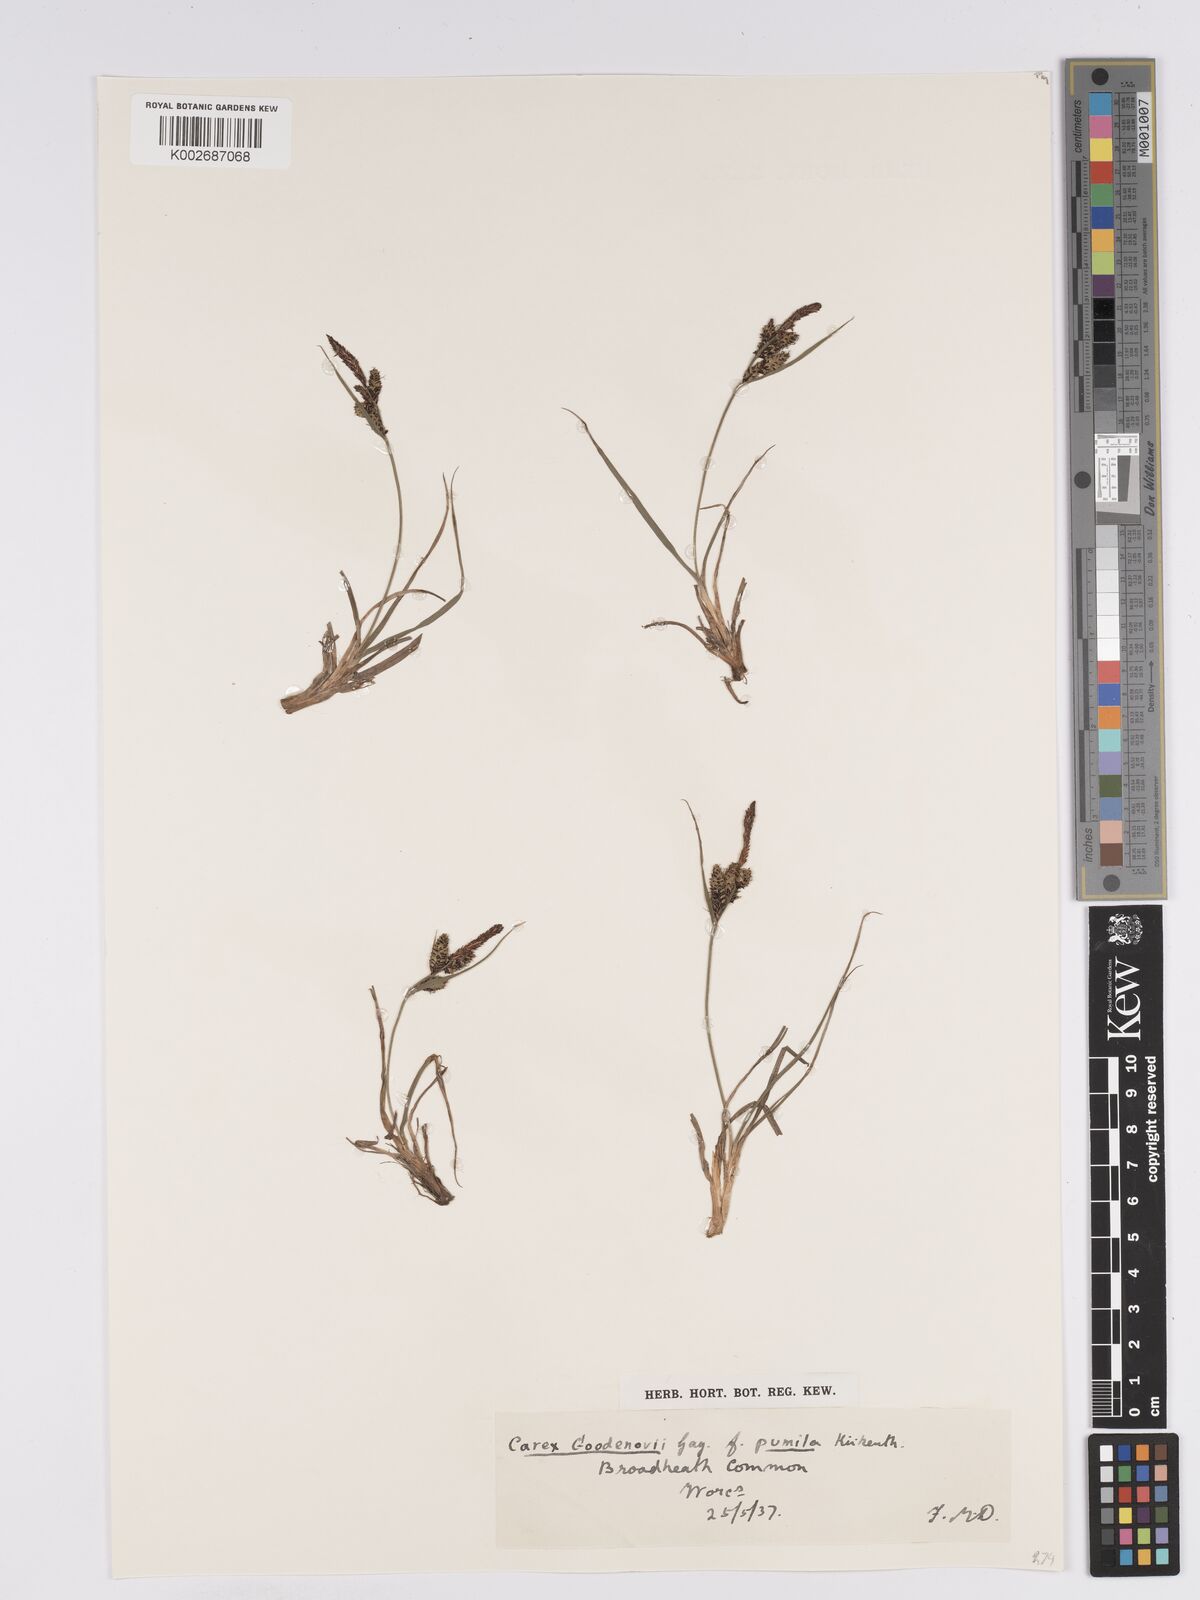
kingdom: Plantae
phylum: Tracheophyta
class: Liliopsida
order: Poales
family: Cyperaceae
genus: Carex
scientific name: Carex nigra
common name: Common sedge
